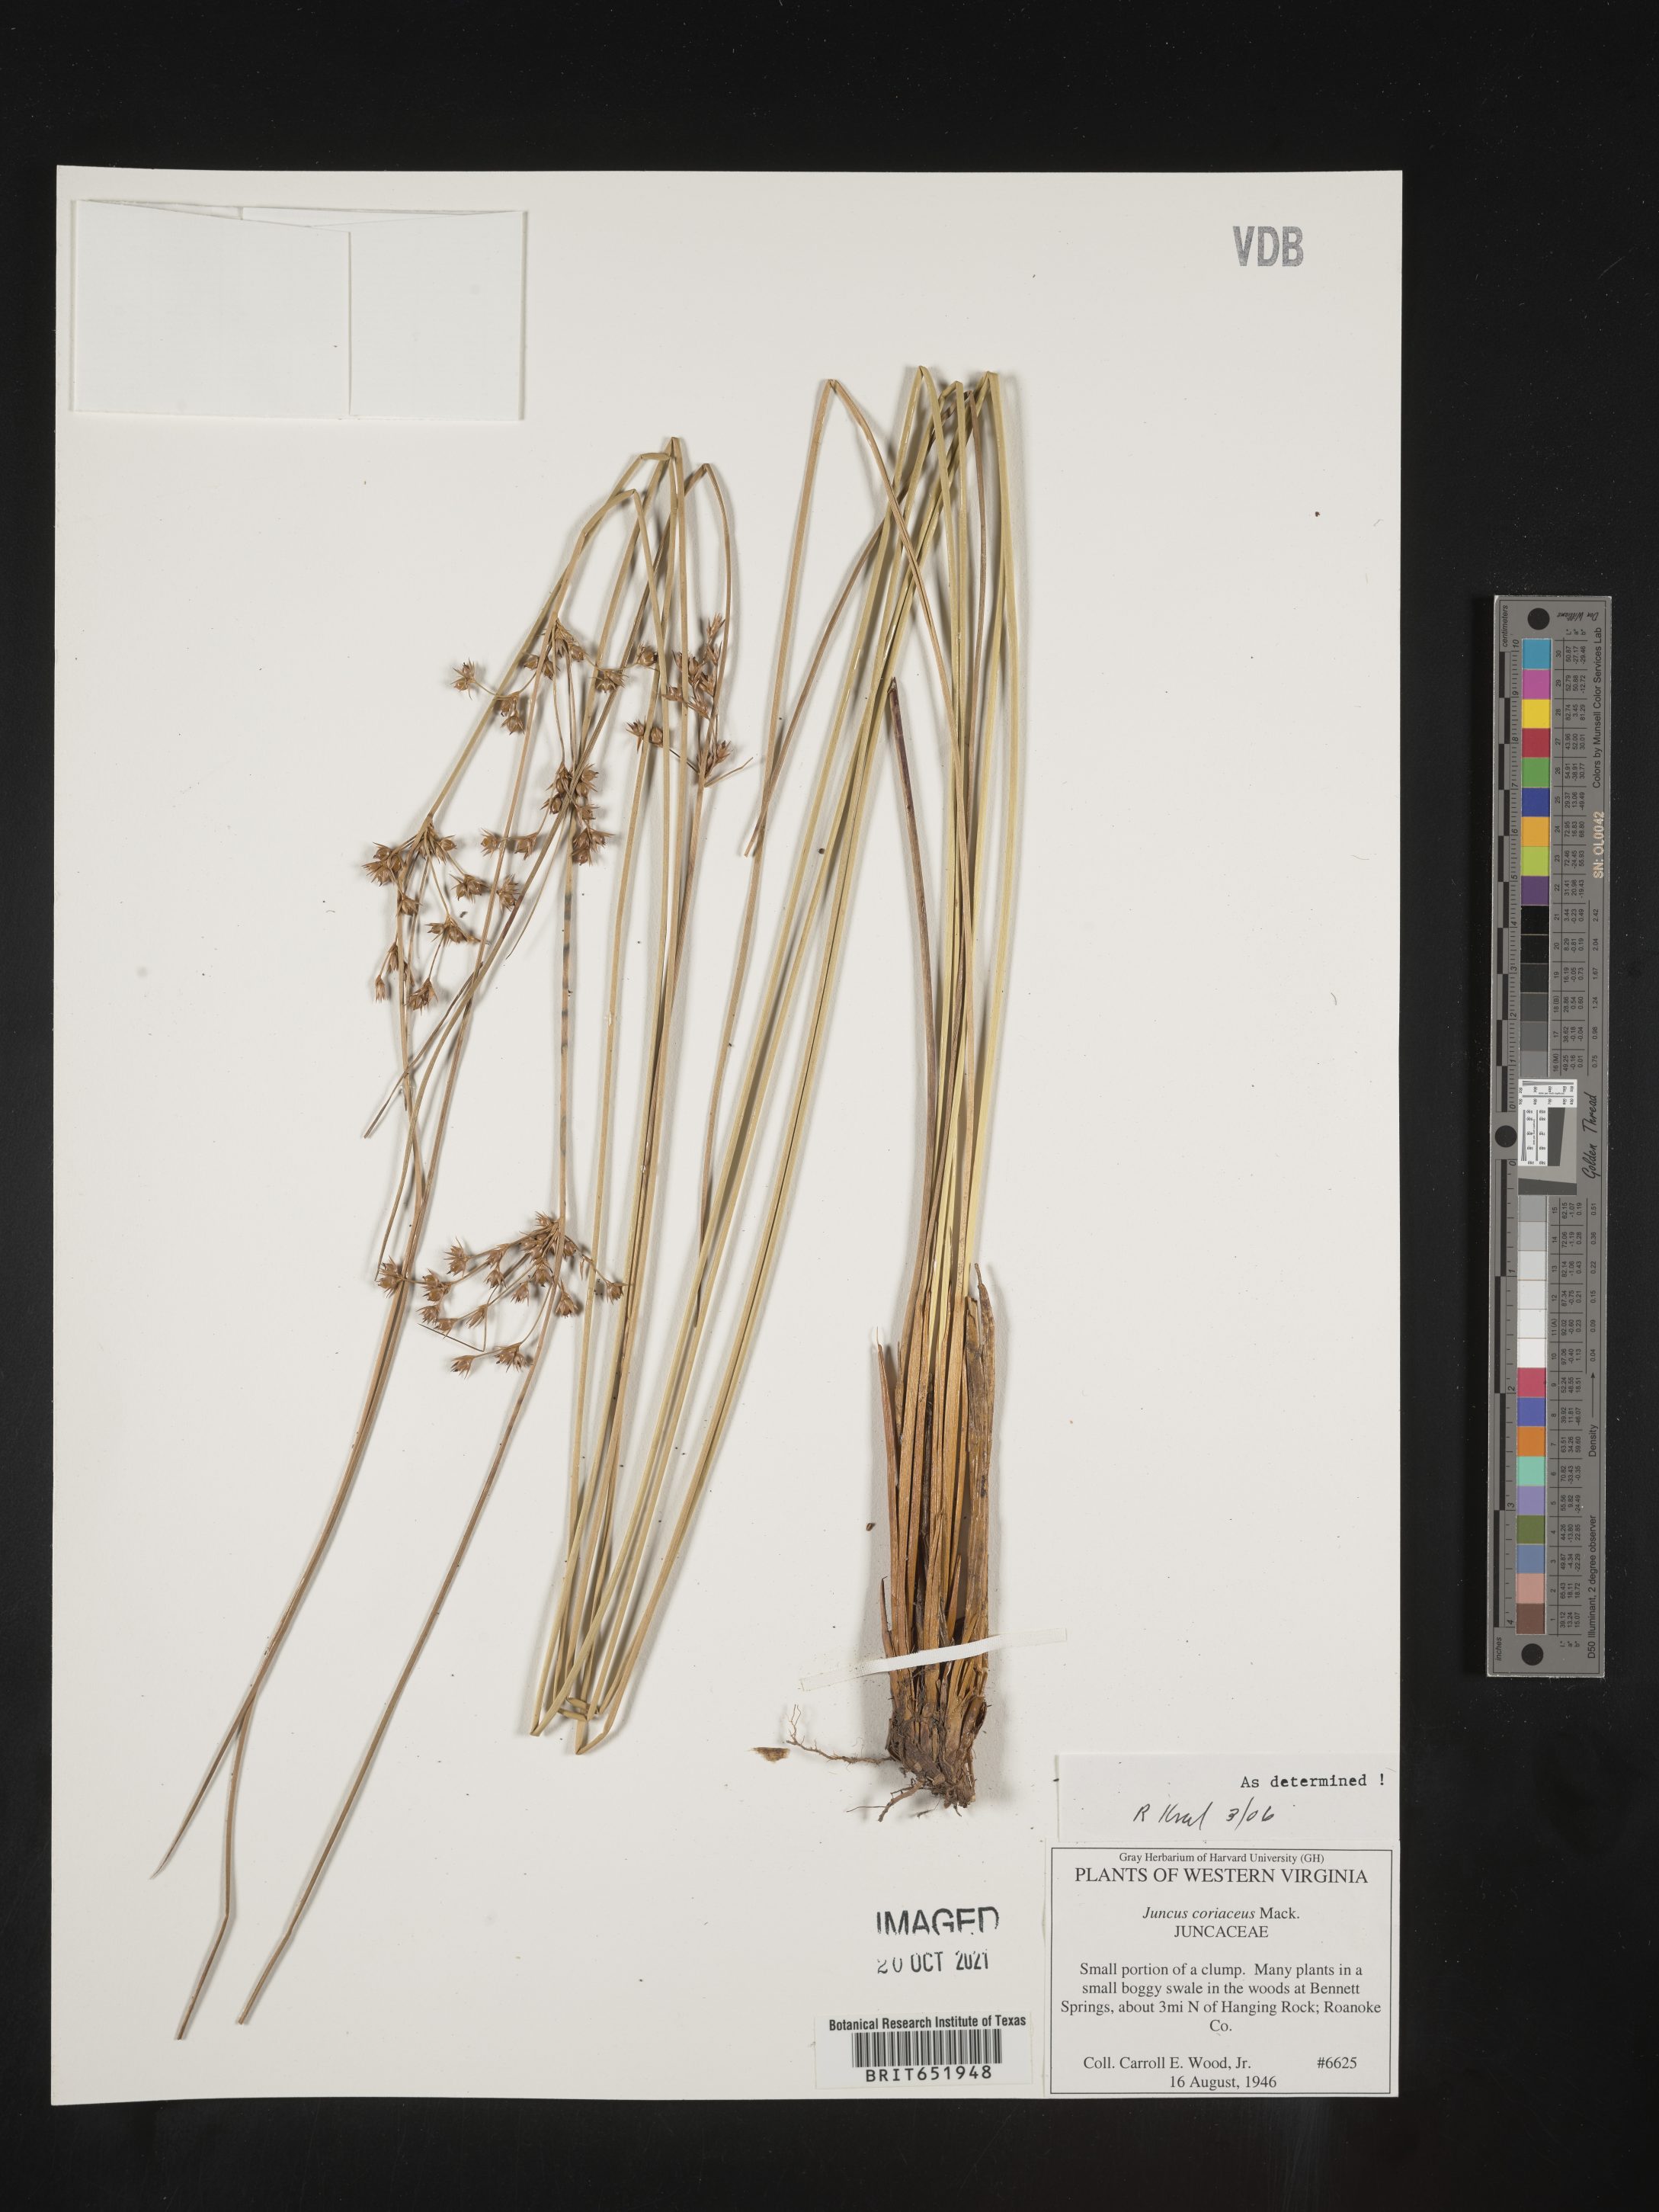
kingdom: Plantae
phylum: Tracheophyta
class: Liliopsida
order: Poales
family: Juncaceae
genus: Juncus
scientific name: Juncus coriaceus
